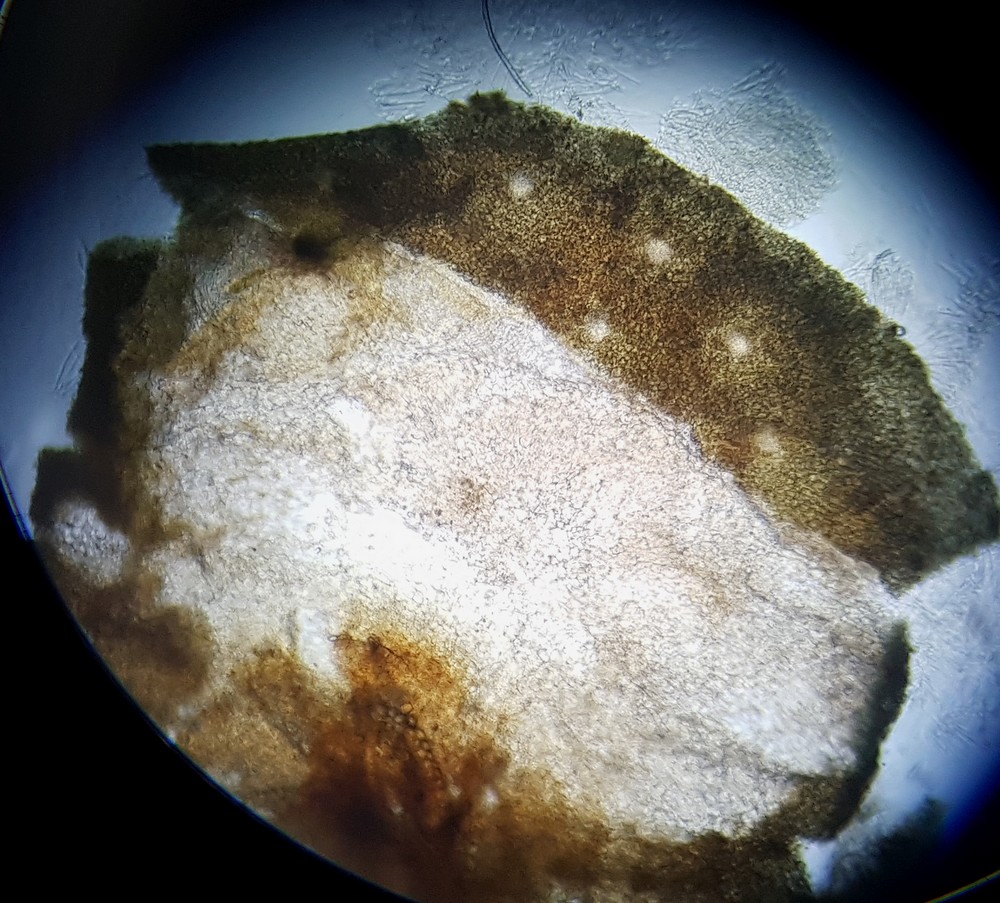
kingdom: Fungi
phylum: Ascomycota
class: Sordariomycetes
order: Hypocreales
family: Hypocreaceae
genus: Trichoderma
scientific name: Trichoderma atrobrunneum
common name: grønsort kødkerne
